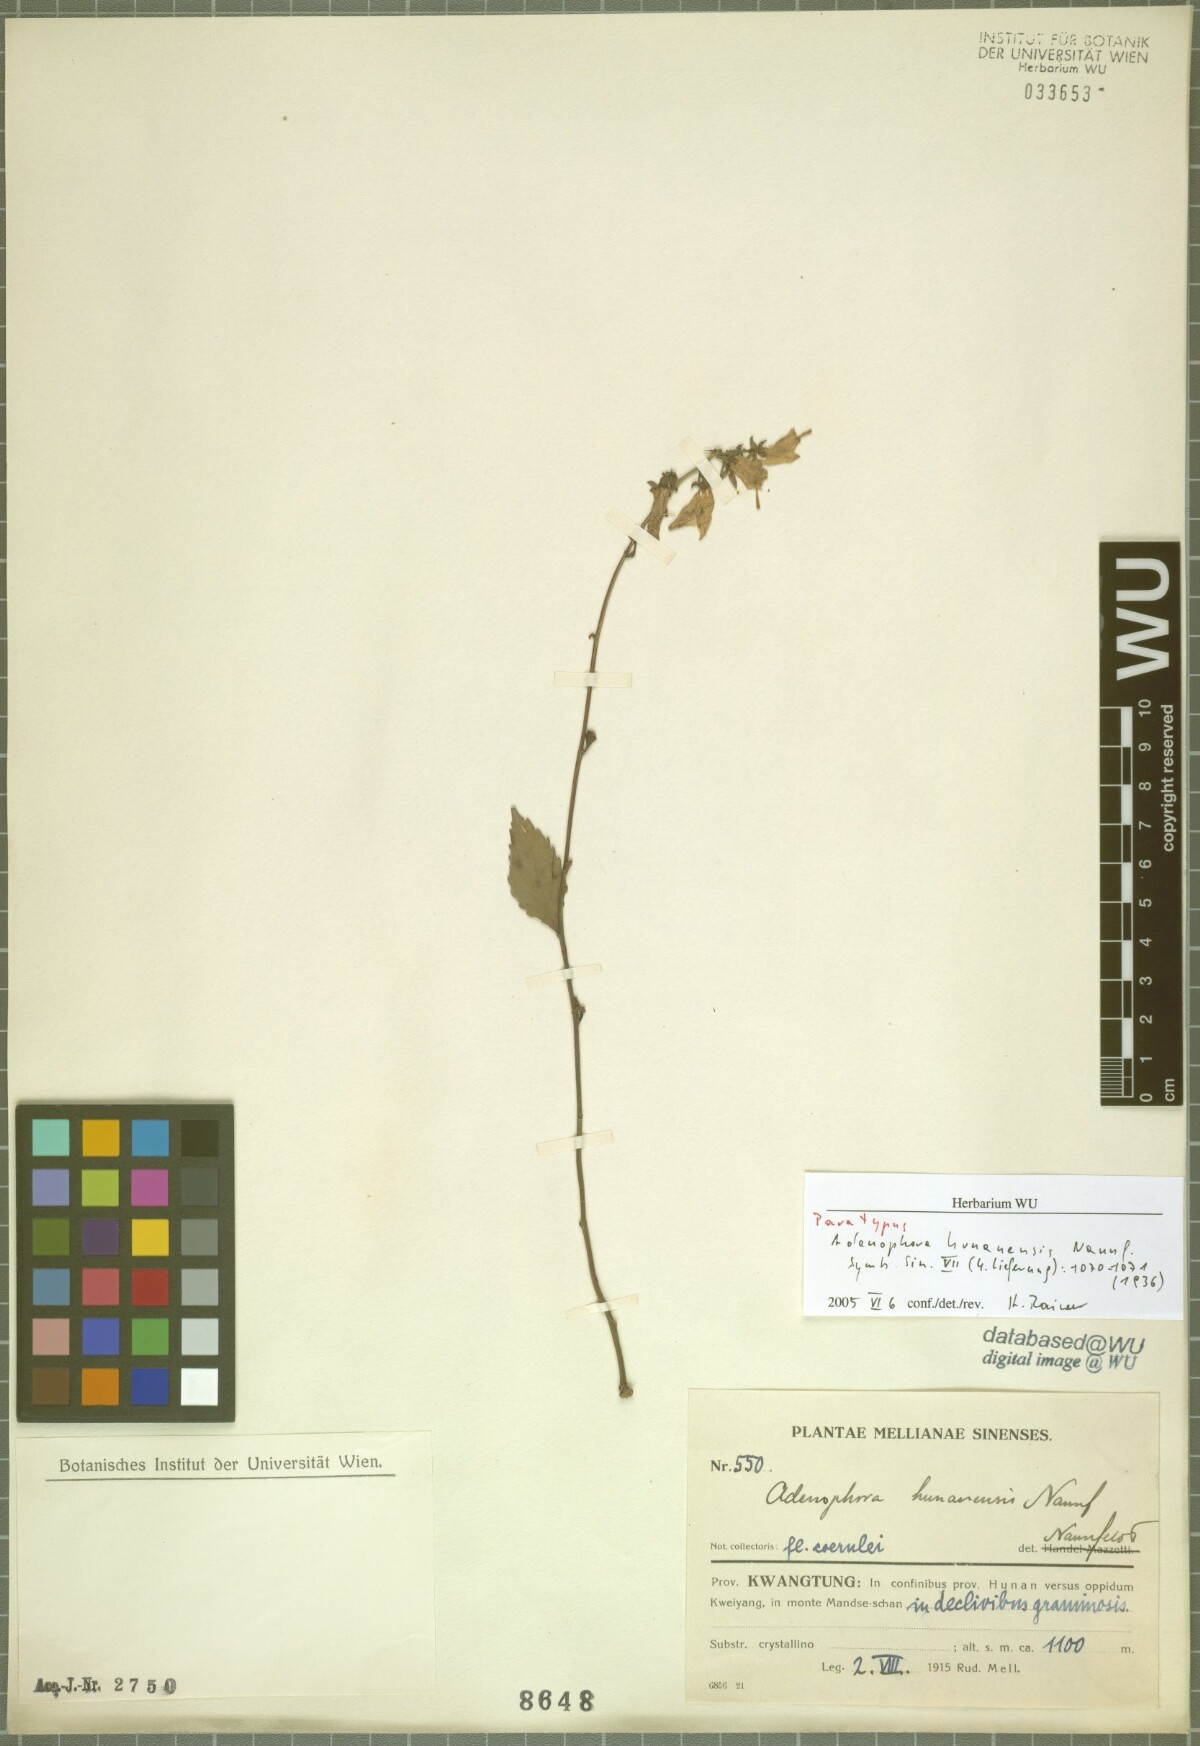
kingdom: Plantae
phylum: Tracheophyta
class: Magnoliopsida
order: Asterales
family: Campanulaceae
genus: Adenophora
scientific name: Adenophora petiolata
